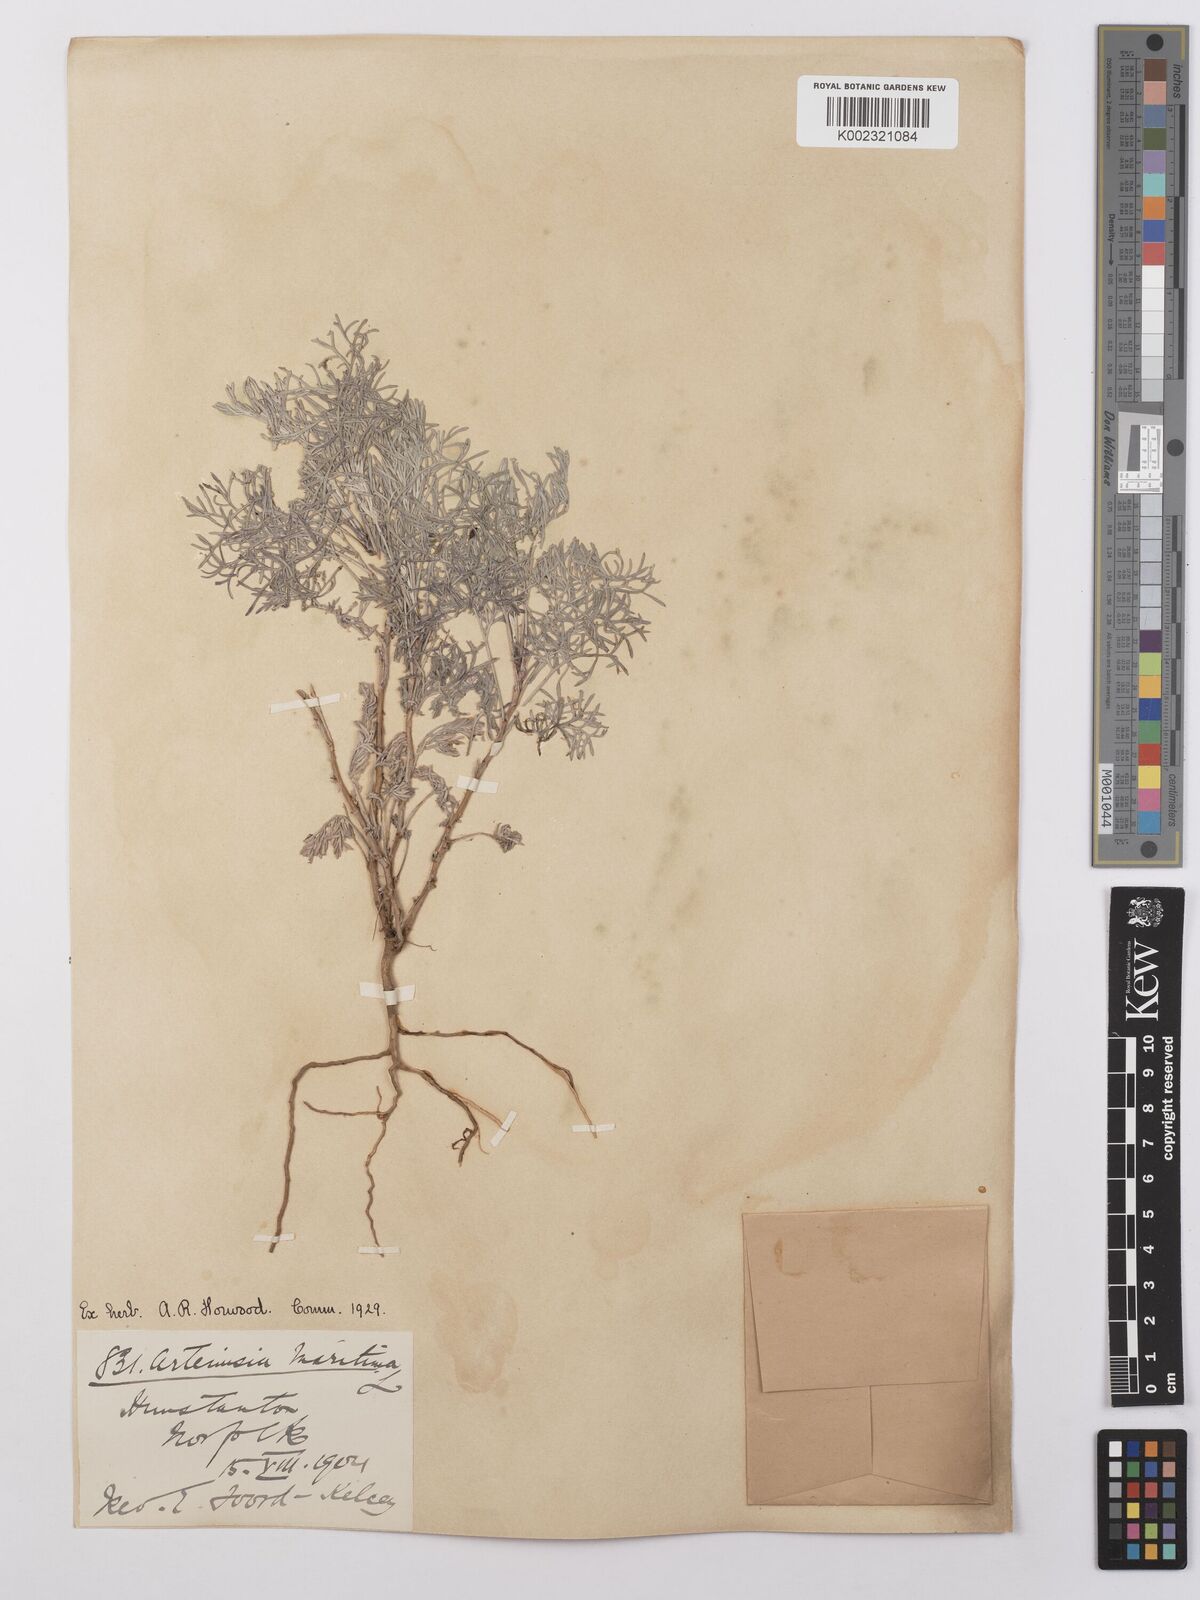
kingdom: Plantae
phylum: Tracheophyta
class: Magnoliopsida
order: Asterales
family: Asteraceae
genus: Artemisia
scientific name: Artemisia maritima
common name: Wormseed
